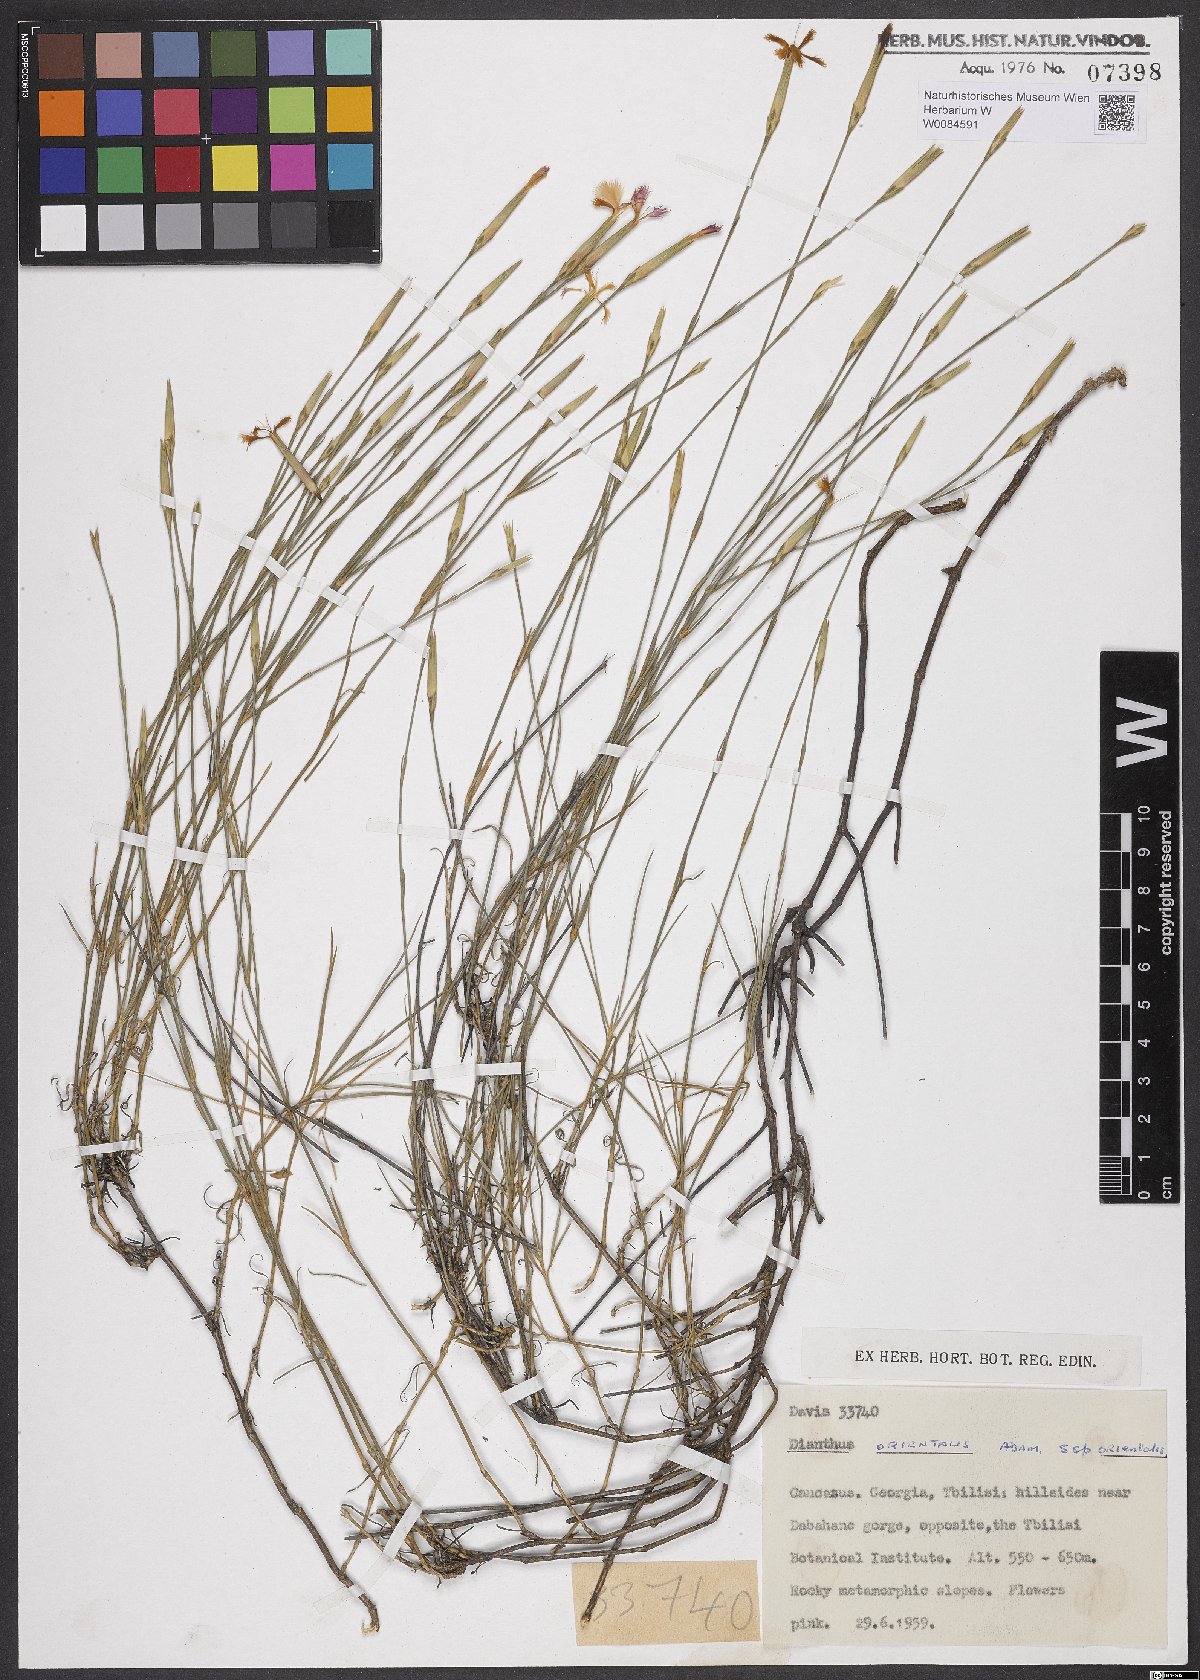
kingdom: Plantae
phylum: Tracheophyta
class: Magnoliopsida
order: Caryophyllales
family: Caryophyllaceae
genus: Dianthus
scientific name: Dianthus orientalis
